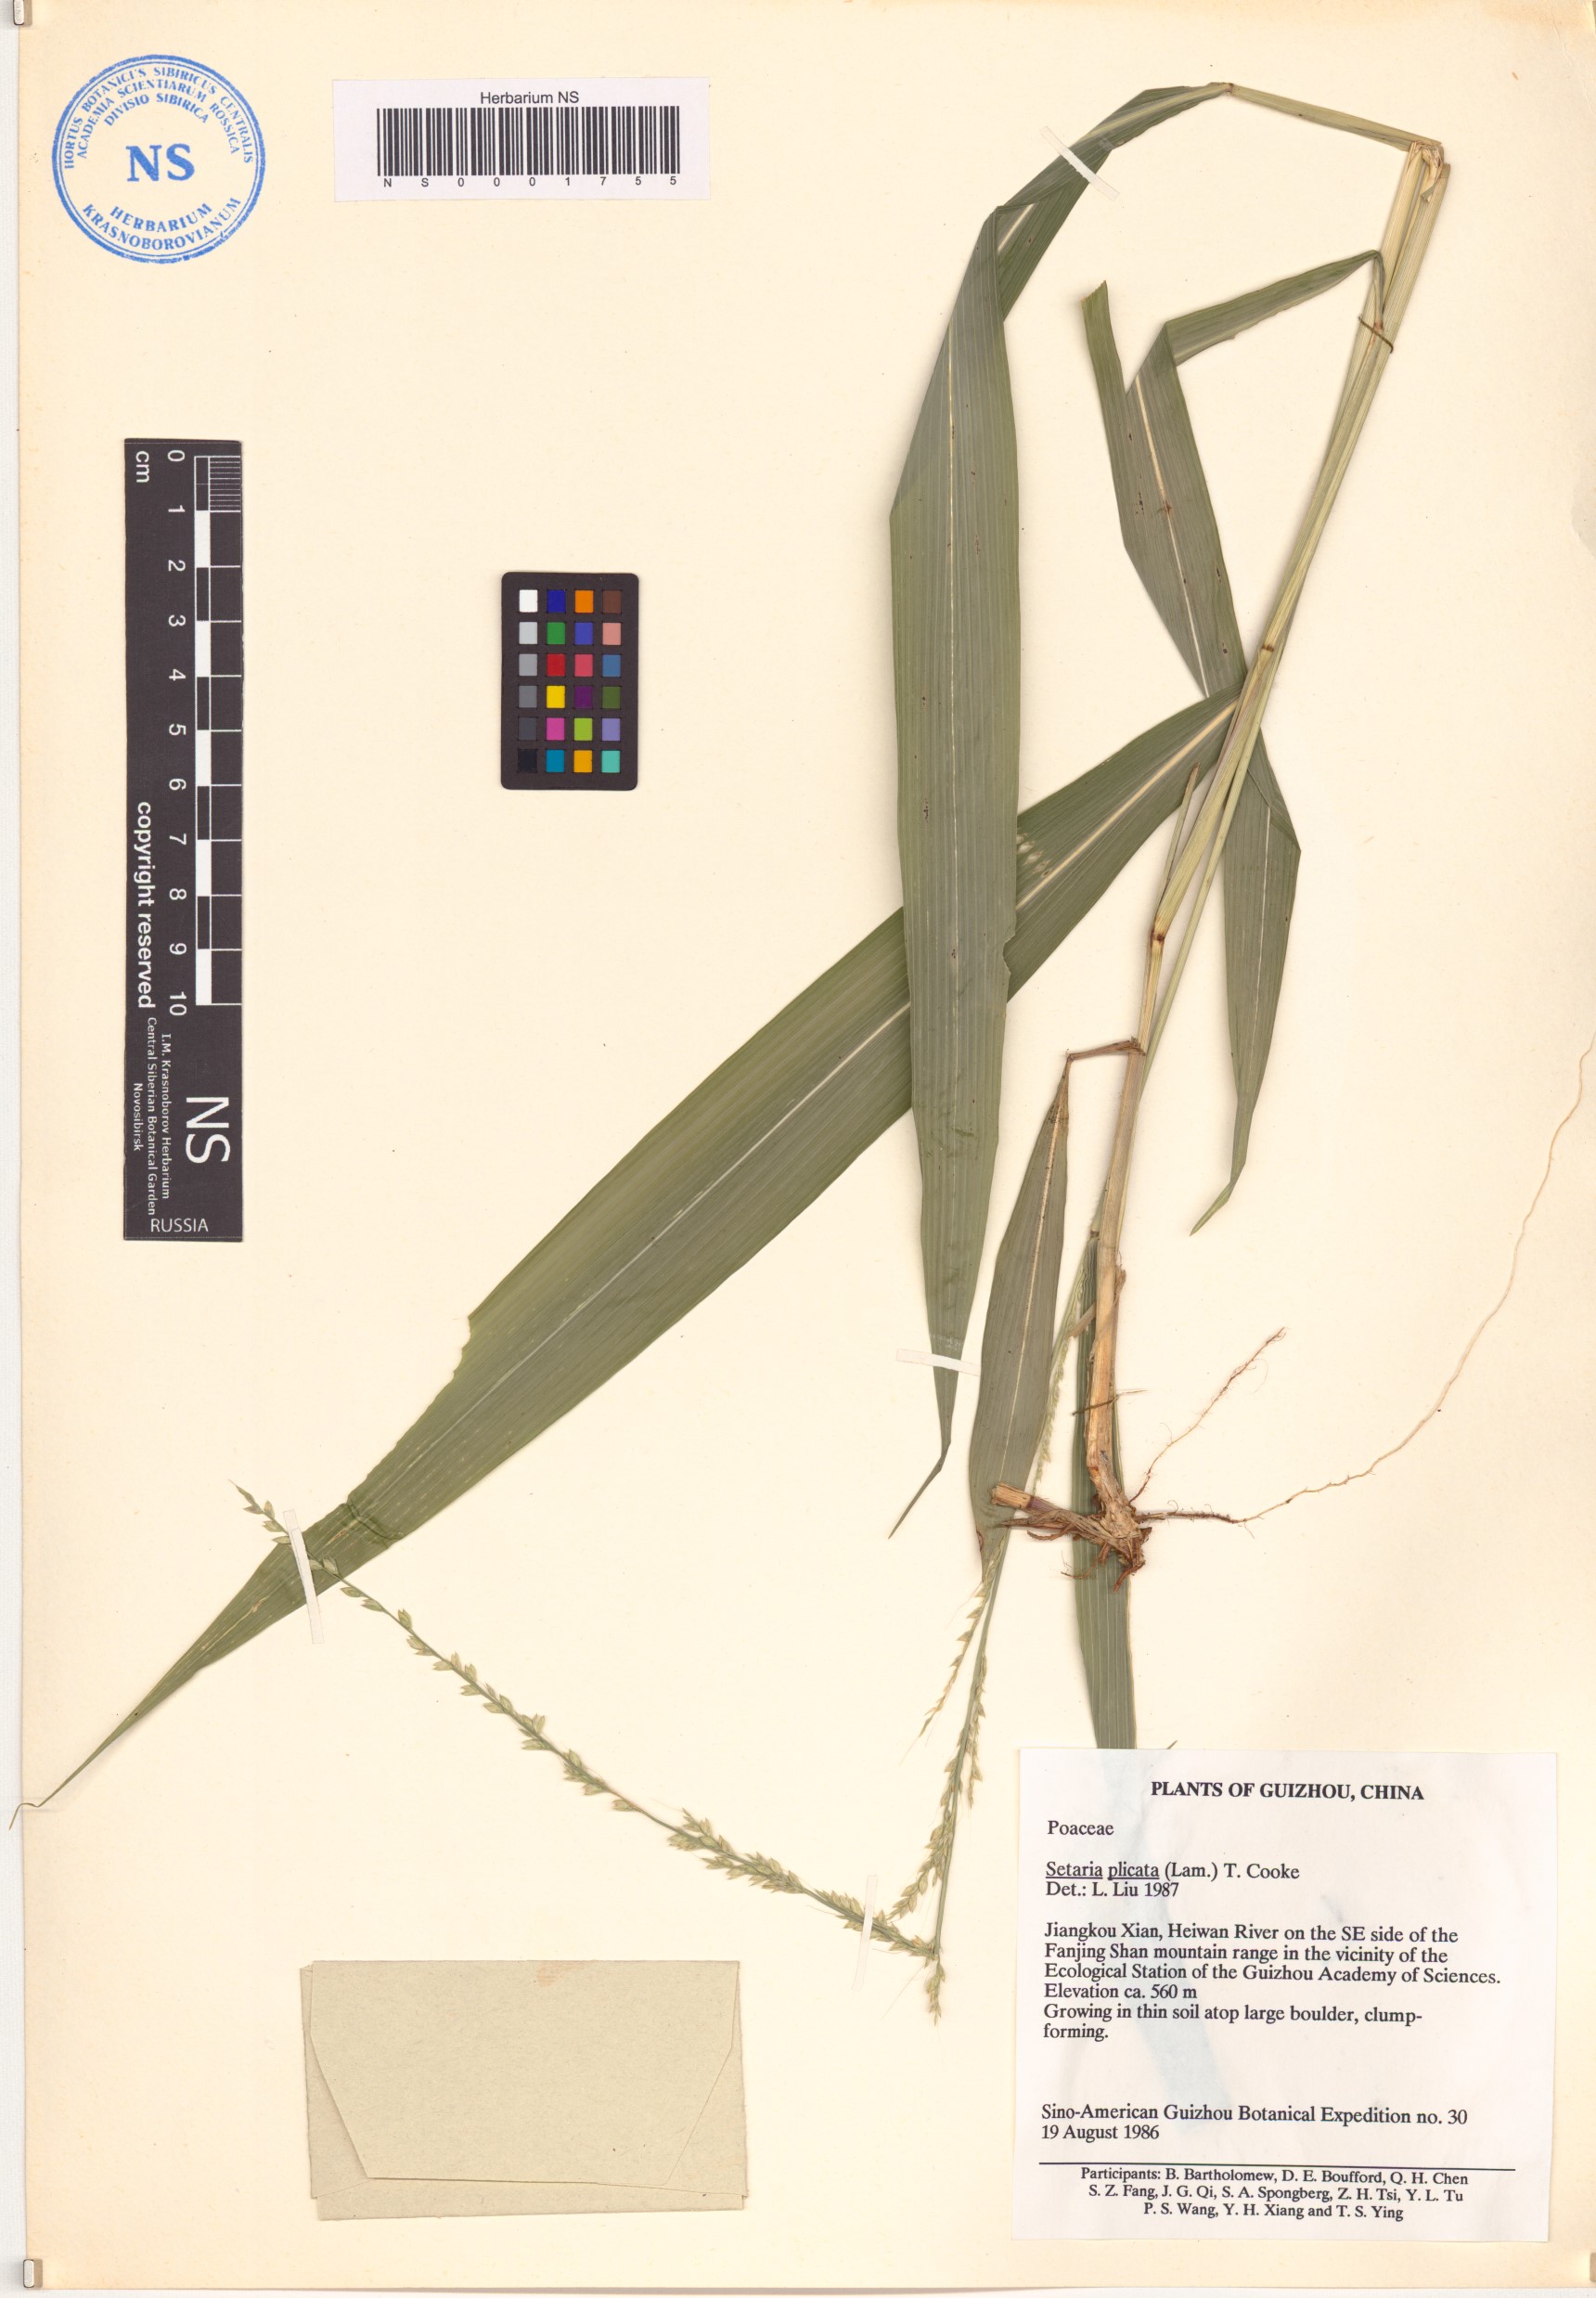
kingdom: Plantae
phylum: Tracheophyta
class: Liliopsida
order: Poales
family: Poaceae
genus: Setaria
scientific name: Setaria plicata
